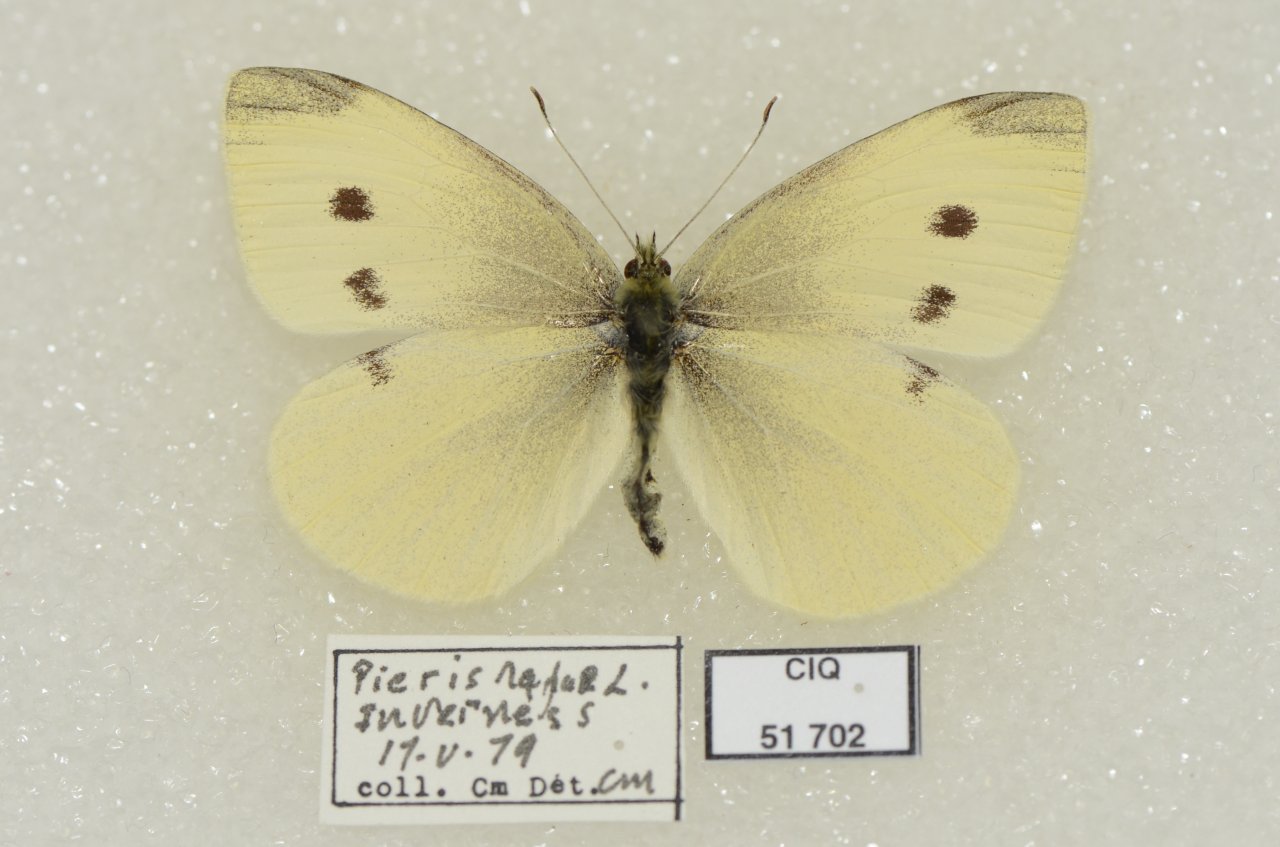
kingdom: Animalia
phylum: Arthropoda
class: Insecta
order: Lepidoptera
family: Pieridae
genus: Pieris
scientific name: Pieris rapae
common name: Cabbage White
